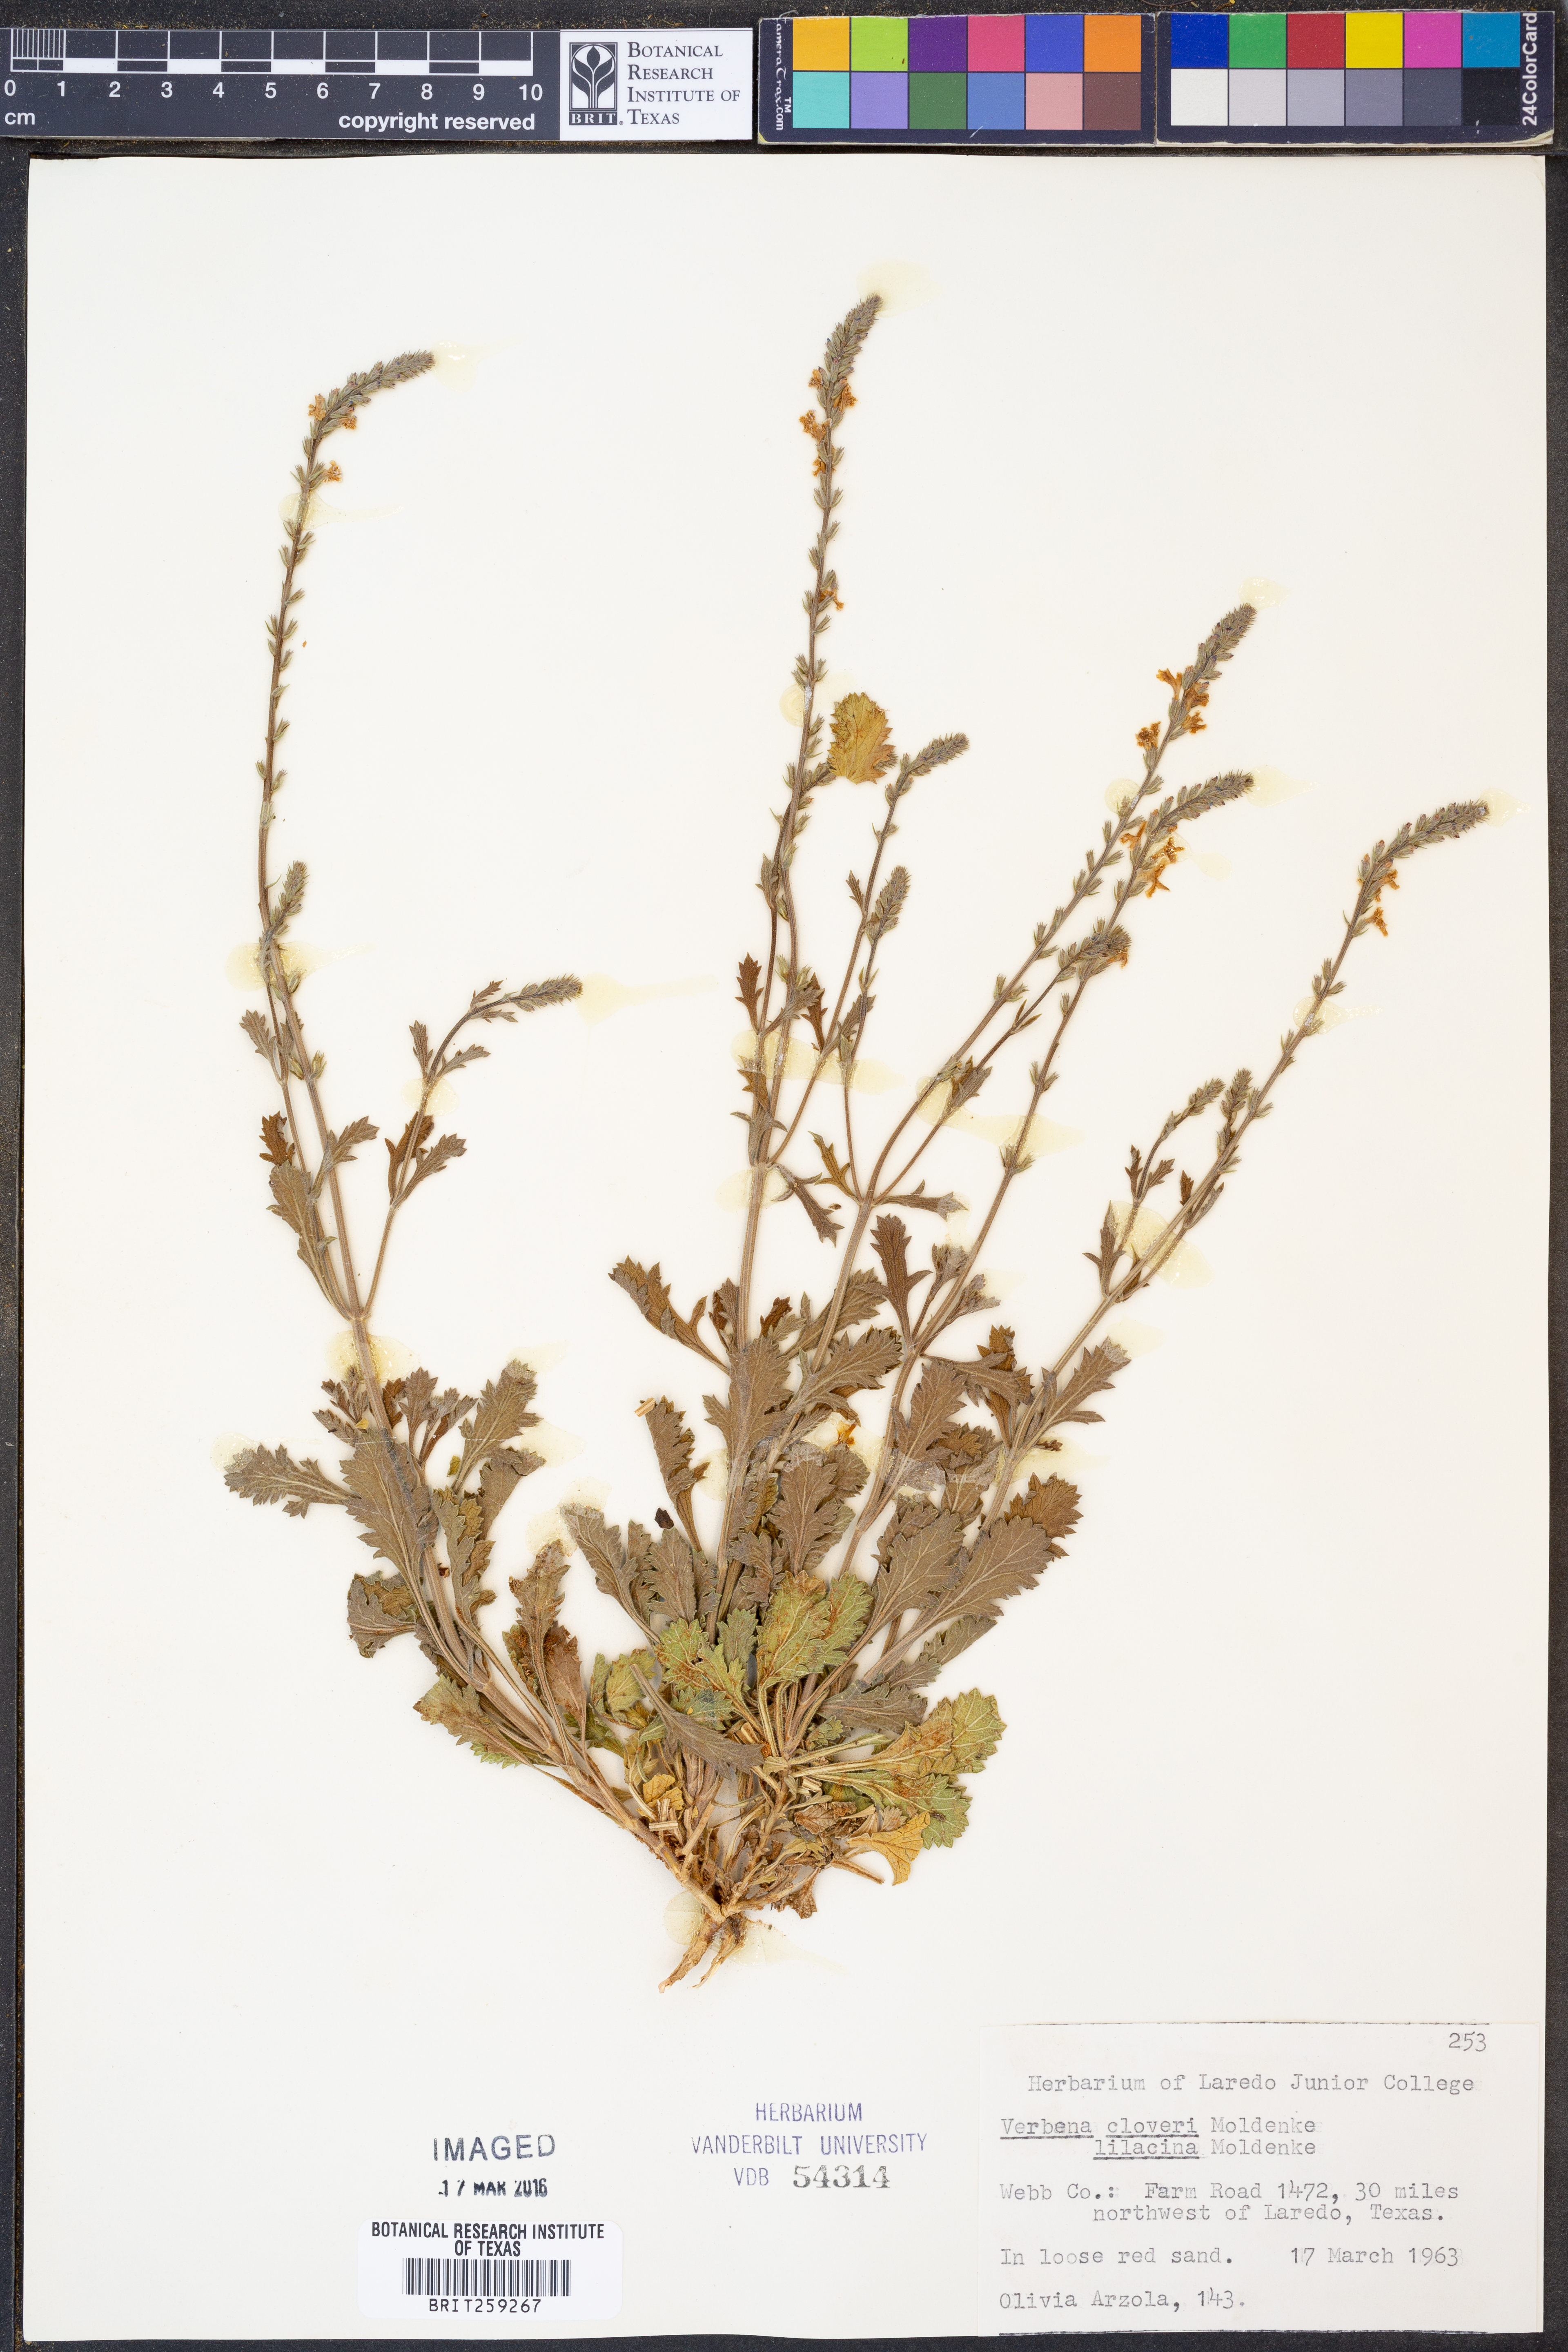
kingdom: Plantae
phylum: Tracheophyta
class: Magnoliopsida
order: Lamiales
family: Verbenaceae
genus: Verbena
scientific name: Verbena cloverae
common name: Clover's vervain
